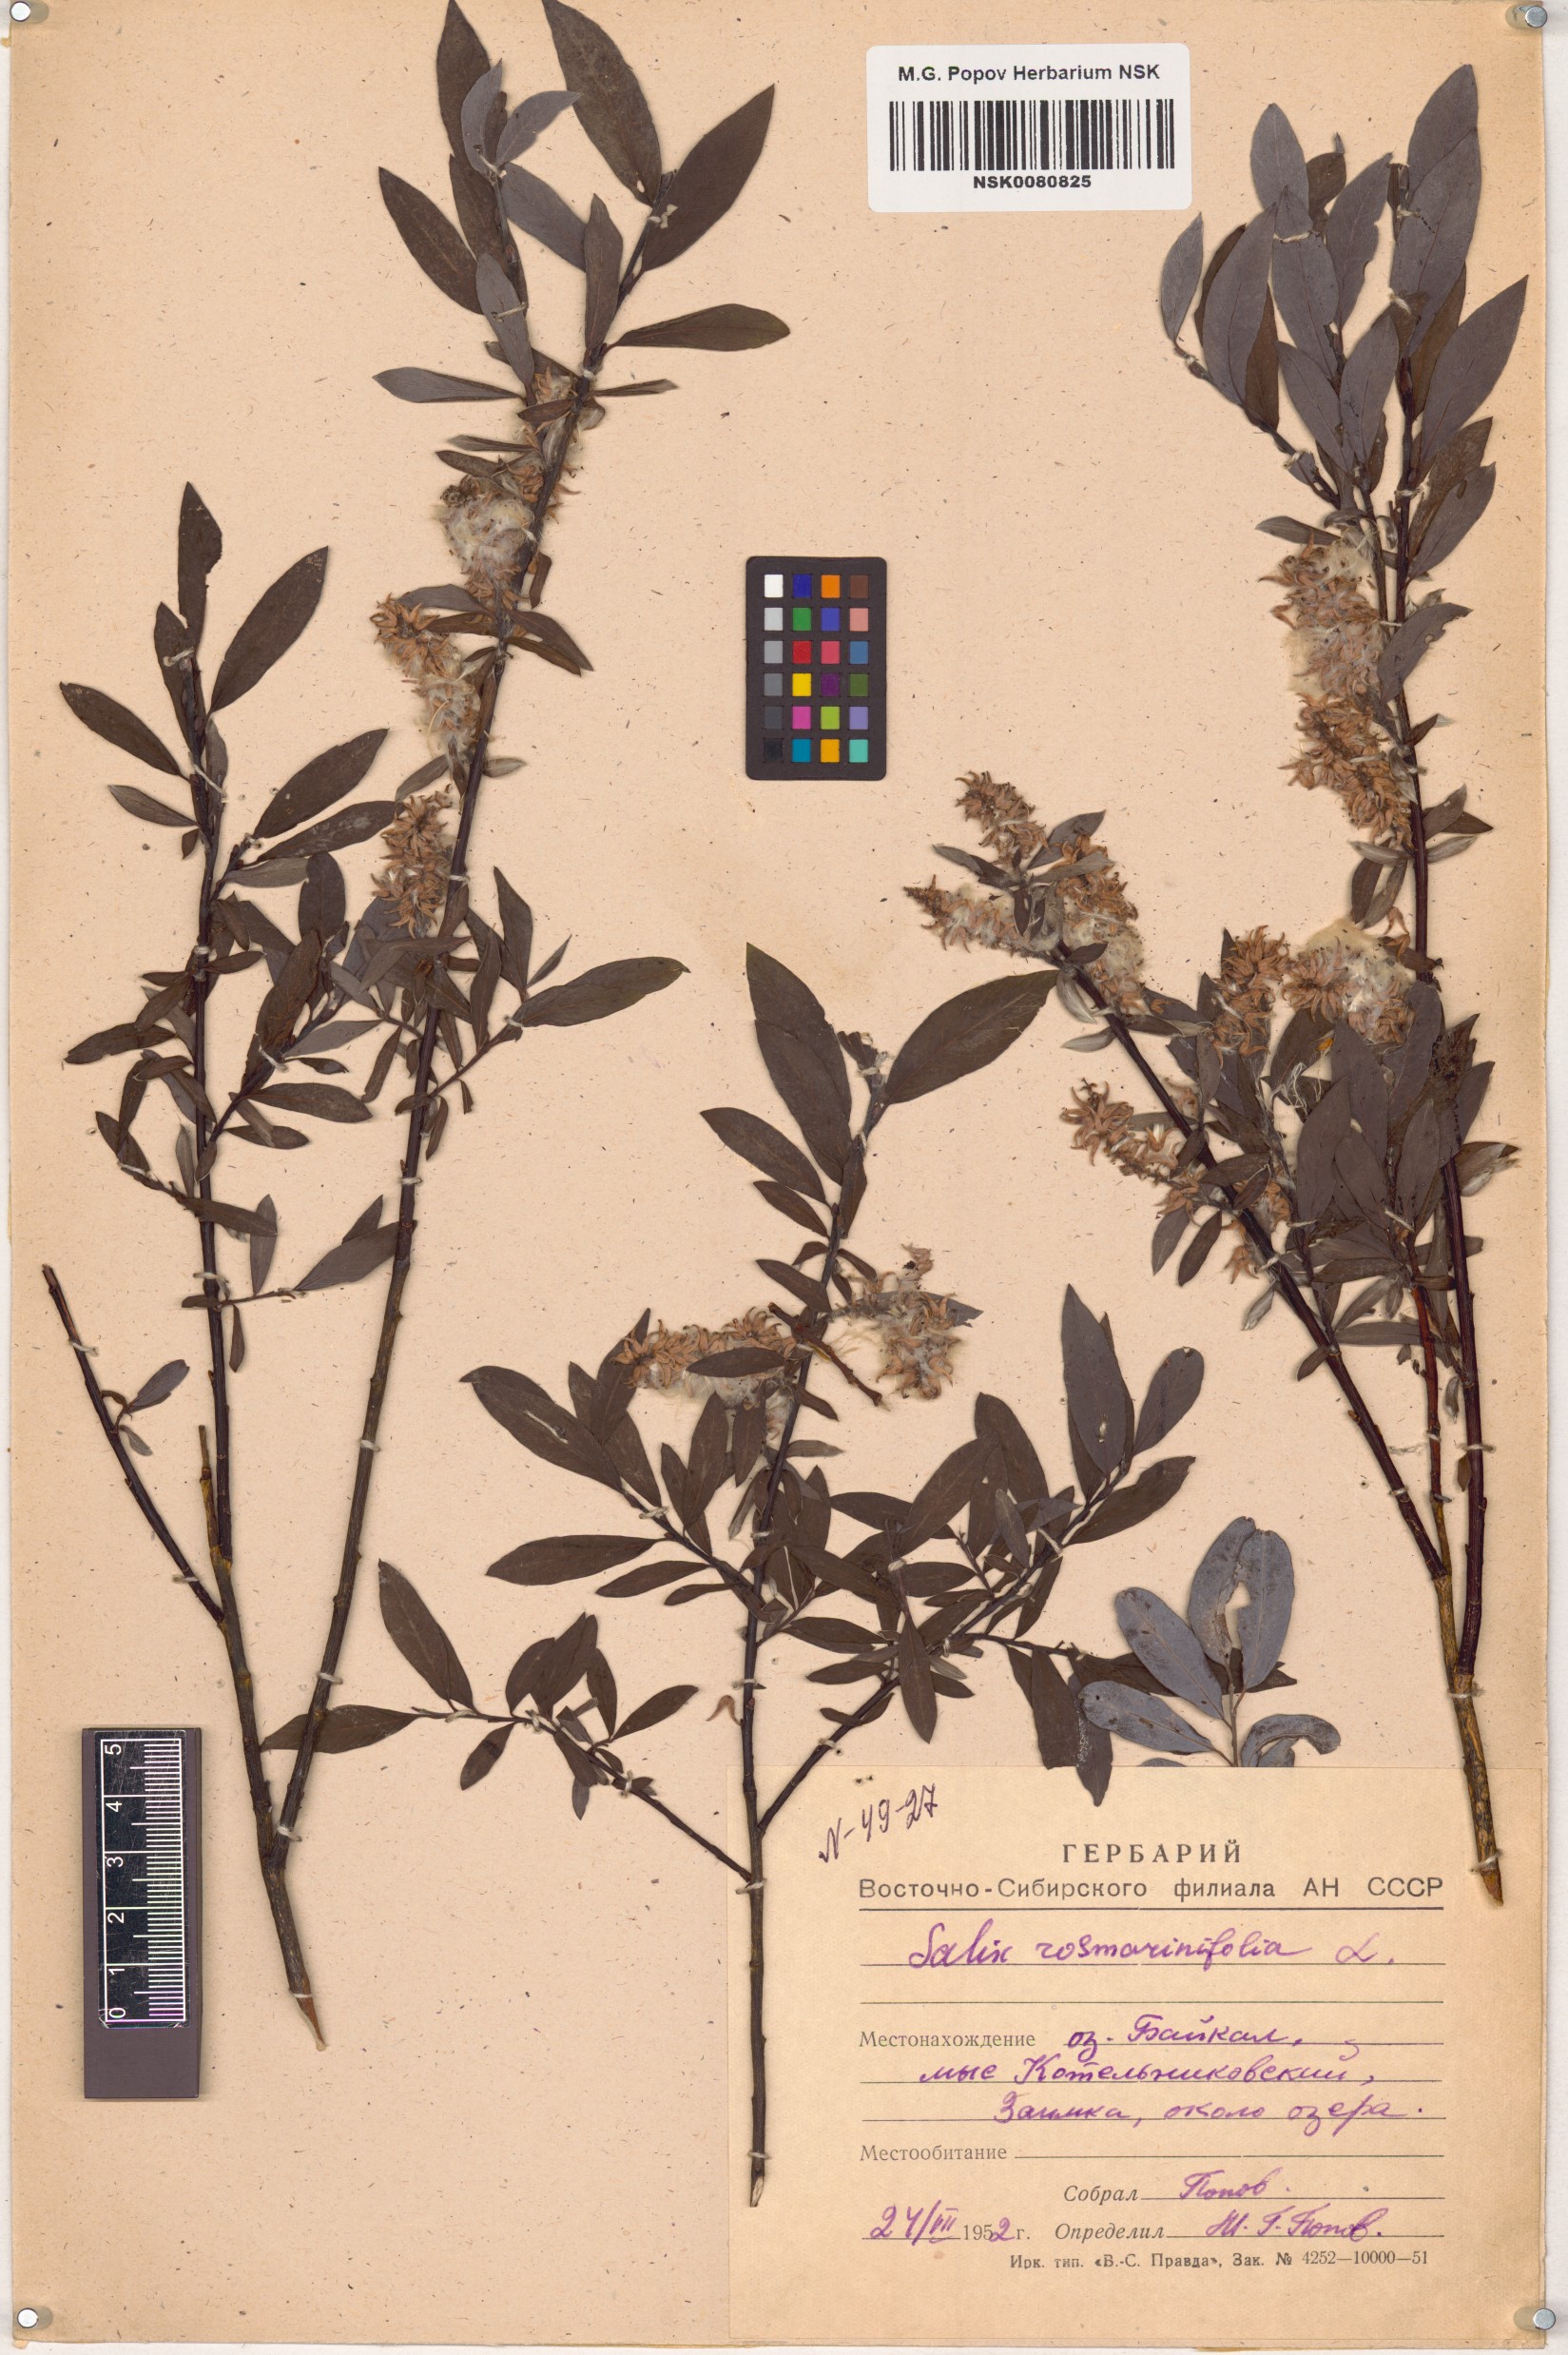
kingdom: Plantae
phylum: Tracheophyta
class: Magnoliopsida
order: Malpighiales
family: Salicaceae
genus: Salix
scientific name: Salix rosmarinifolia
